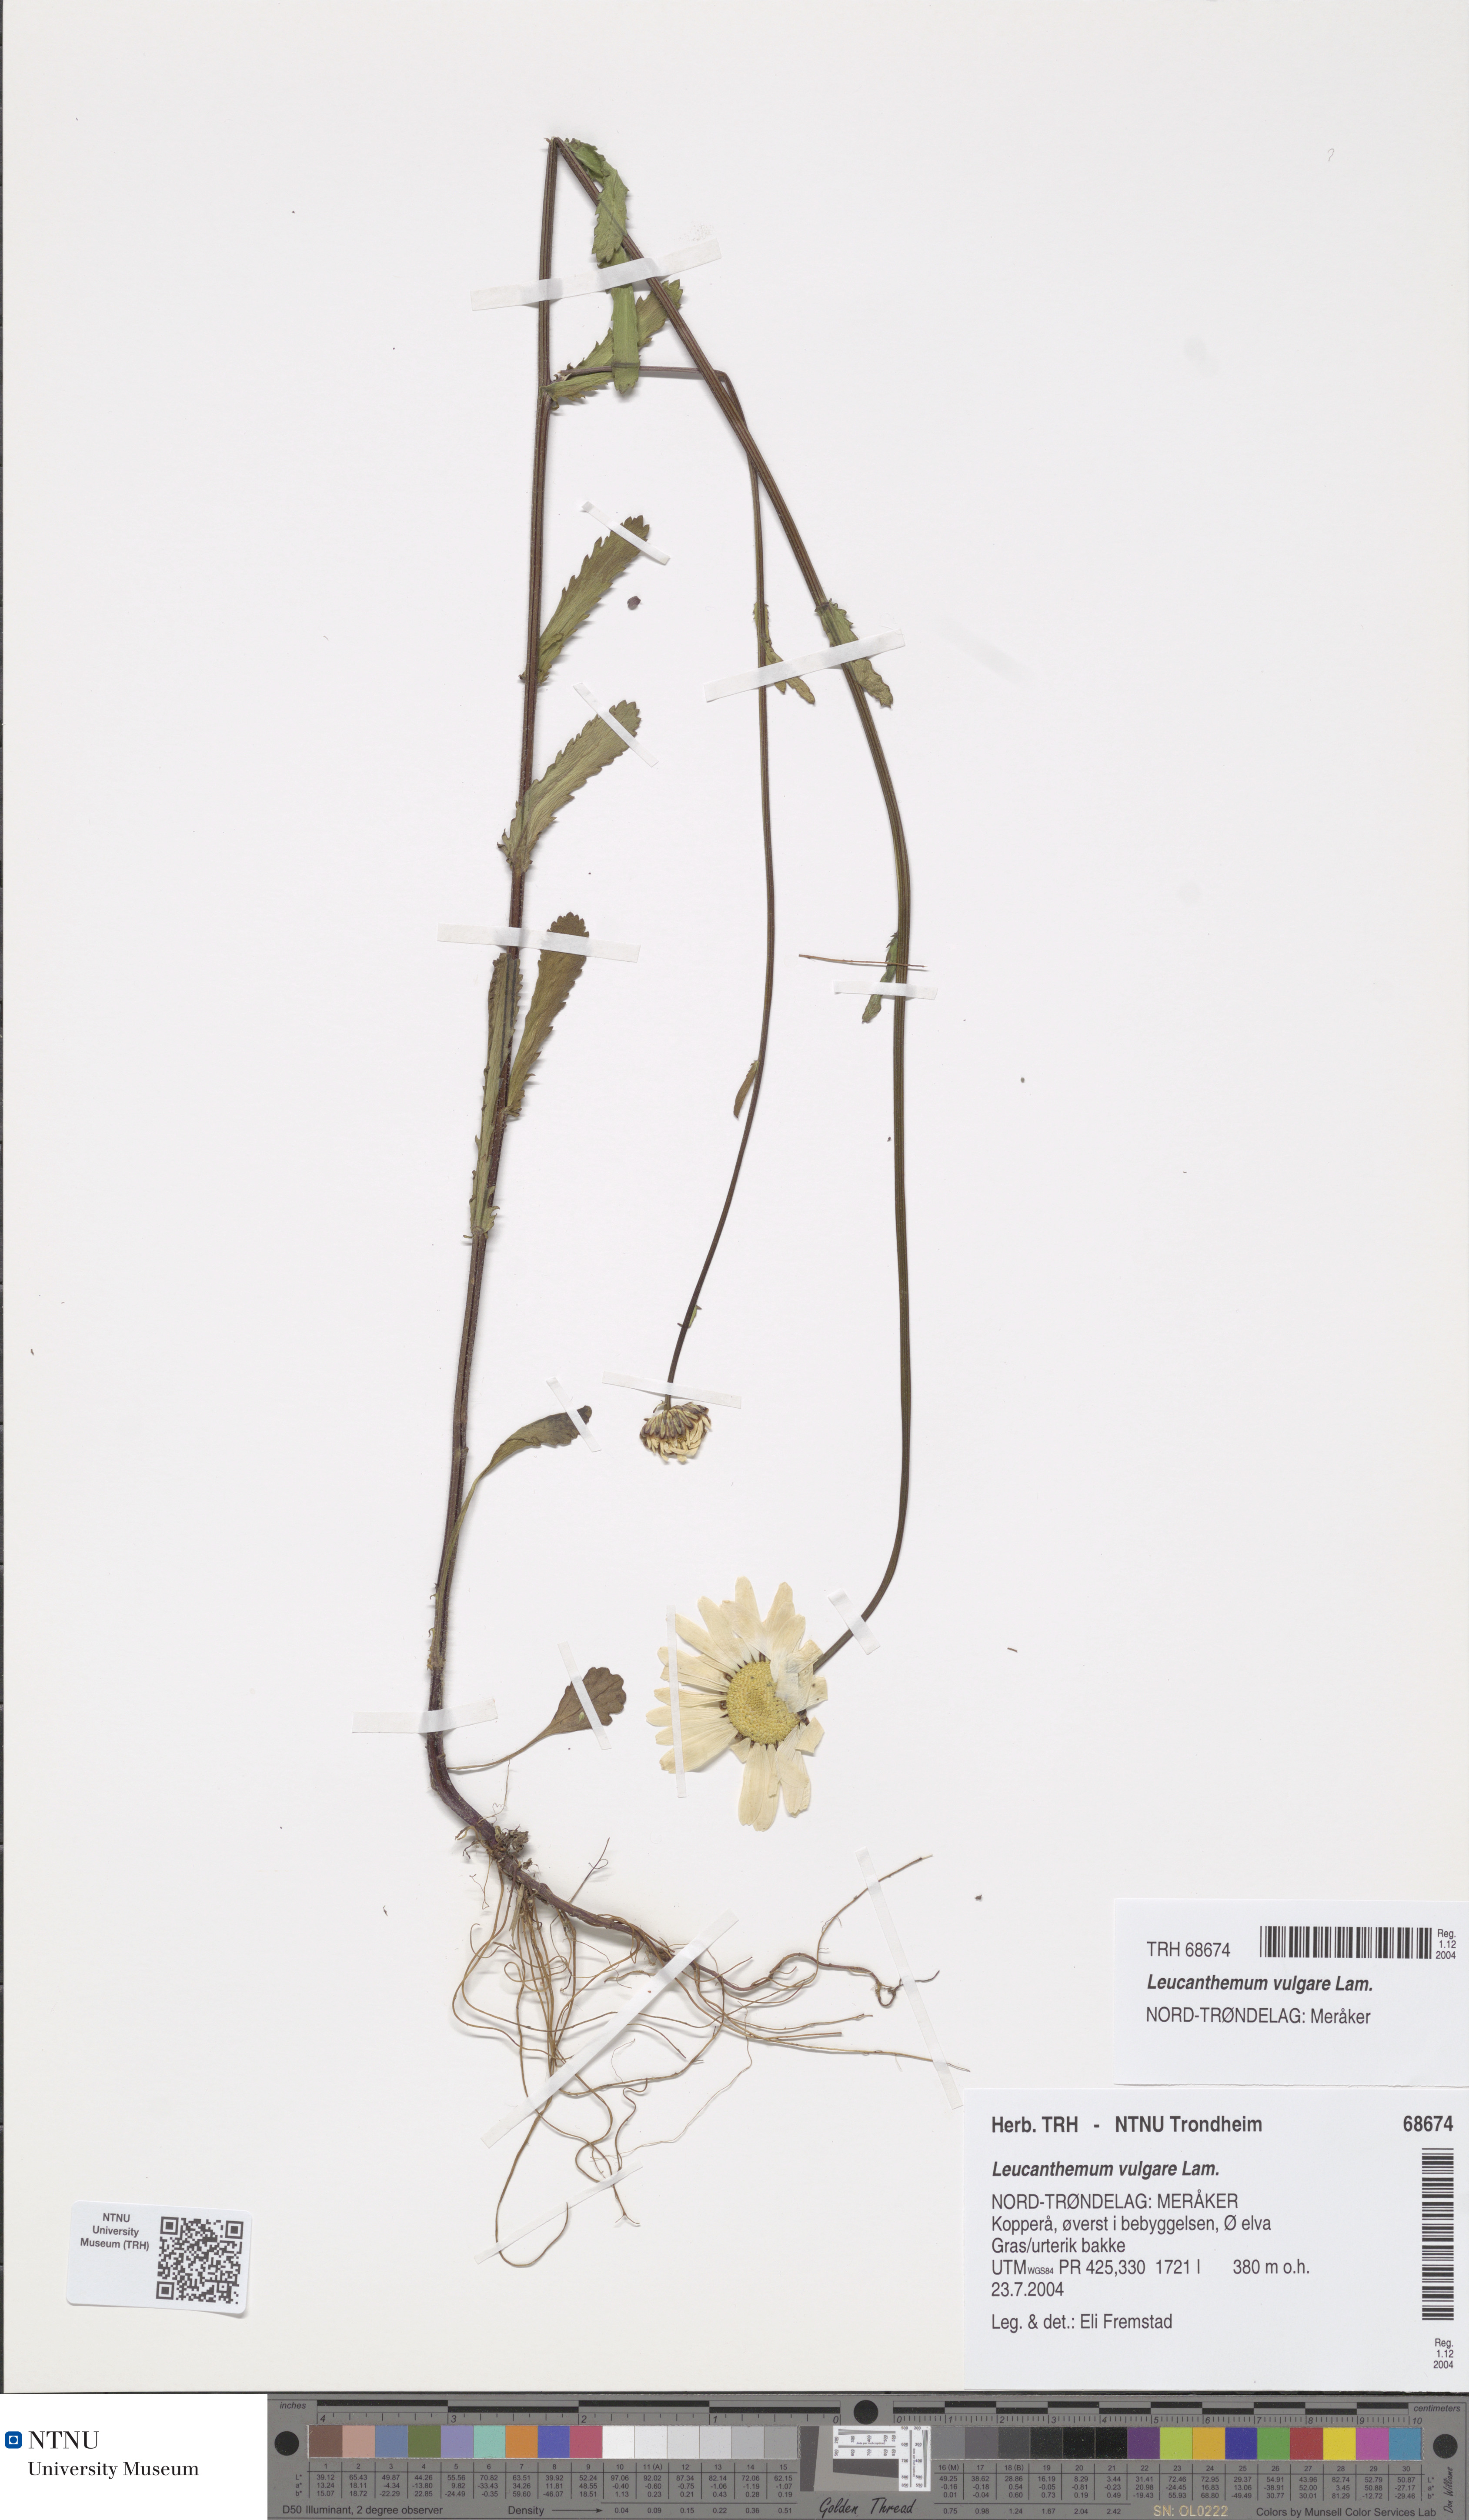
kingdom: Plantae
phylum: Tracheophyta
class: Magnoliopsida
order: Asterales
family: Asteraceae
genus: Leucanthemum
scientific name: Leucanthemum vulgare
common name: Oxeye daisy
